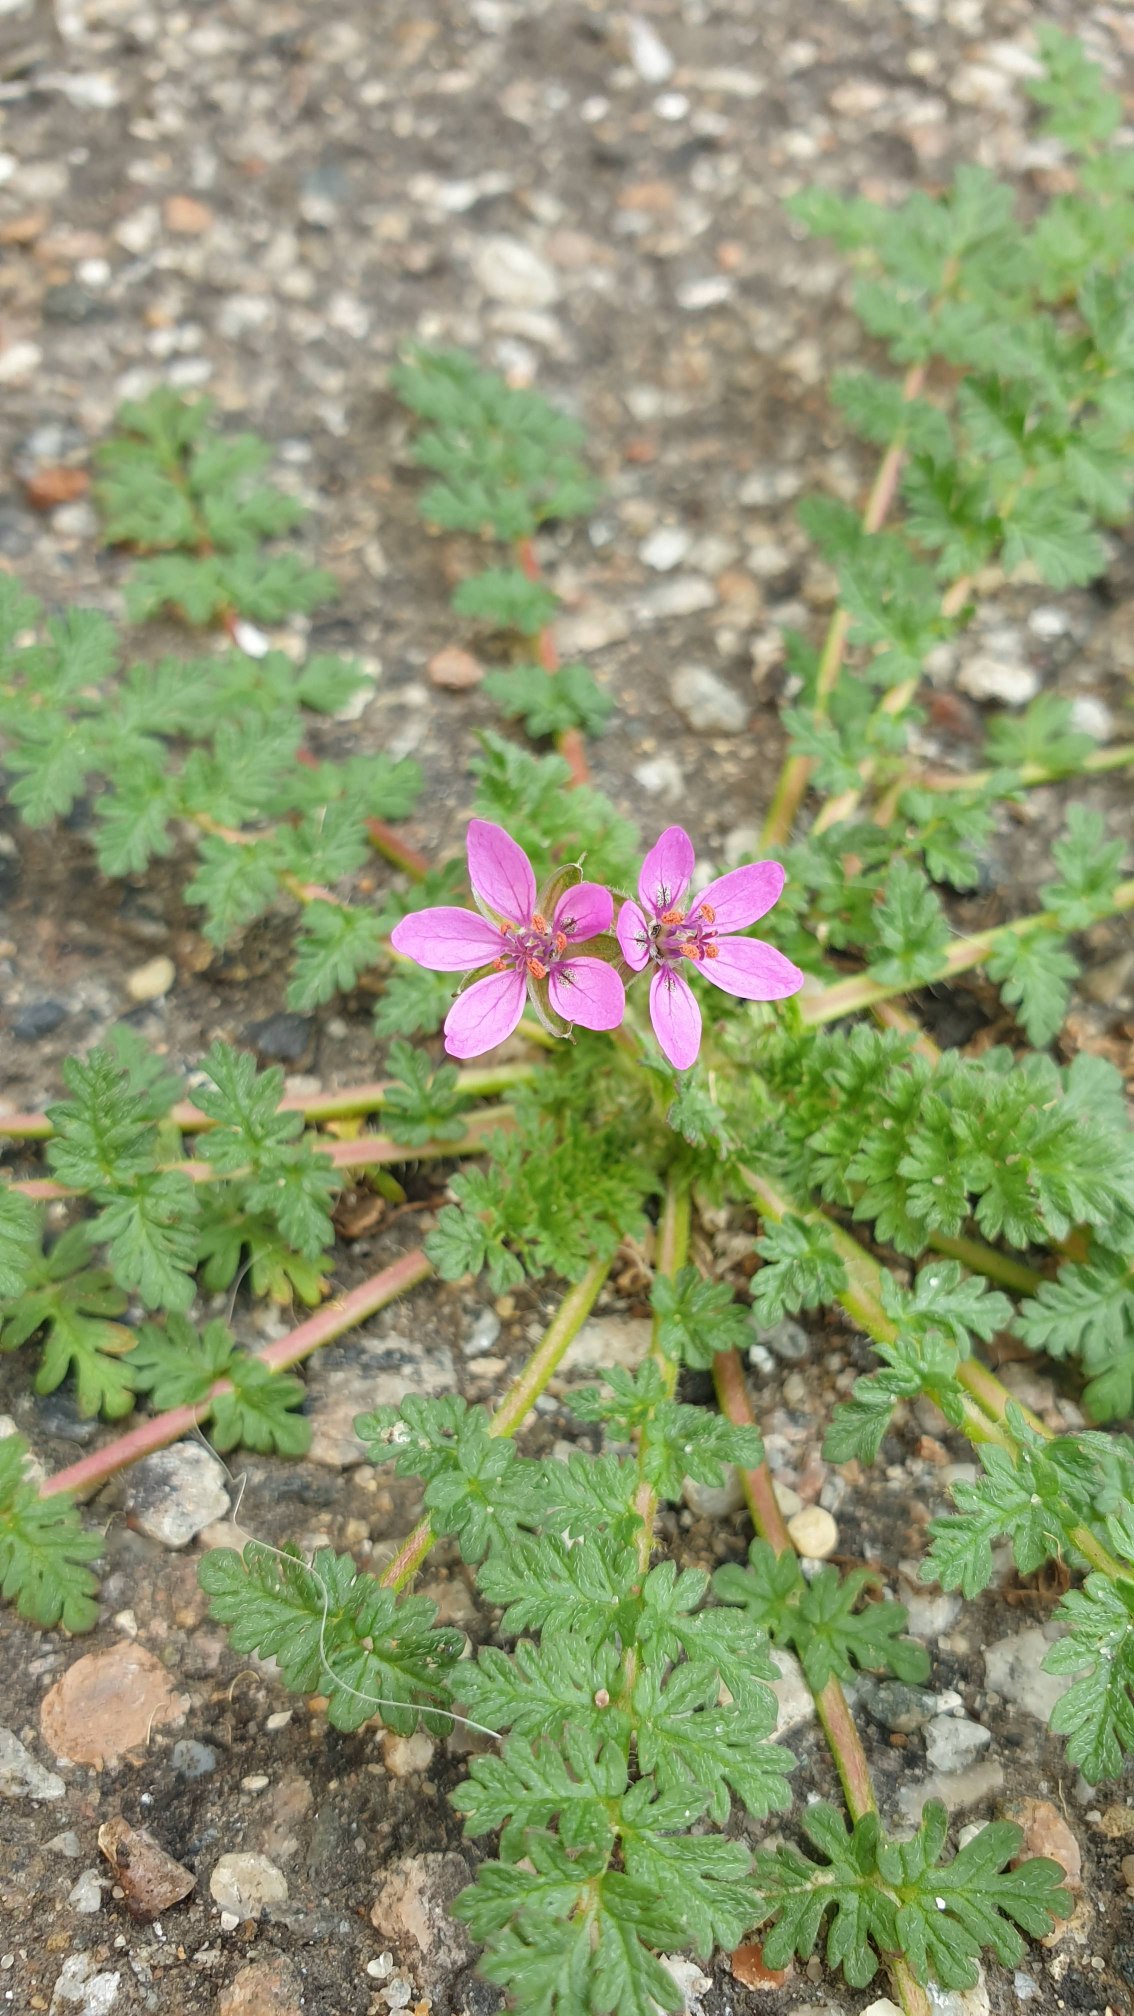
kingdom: Plantae
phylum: Tracheophyta
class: Magnoliopsida
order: Geraniales
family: Geraniaceae
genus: Erodium
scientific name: Erodium cicutarium
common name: Hejrenæb
